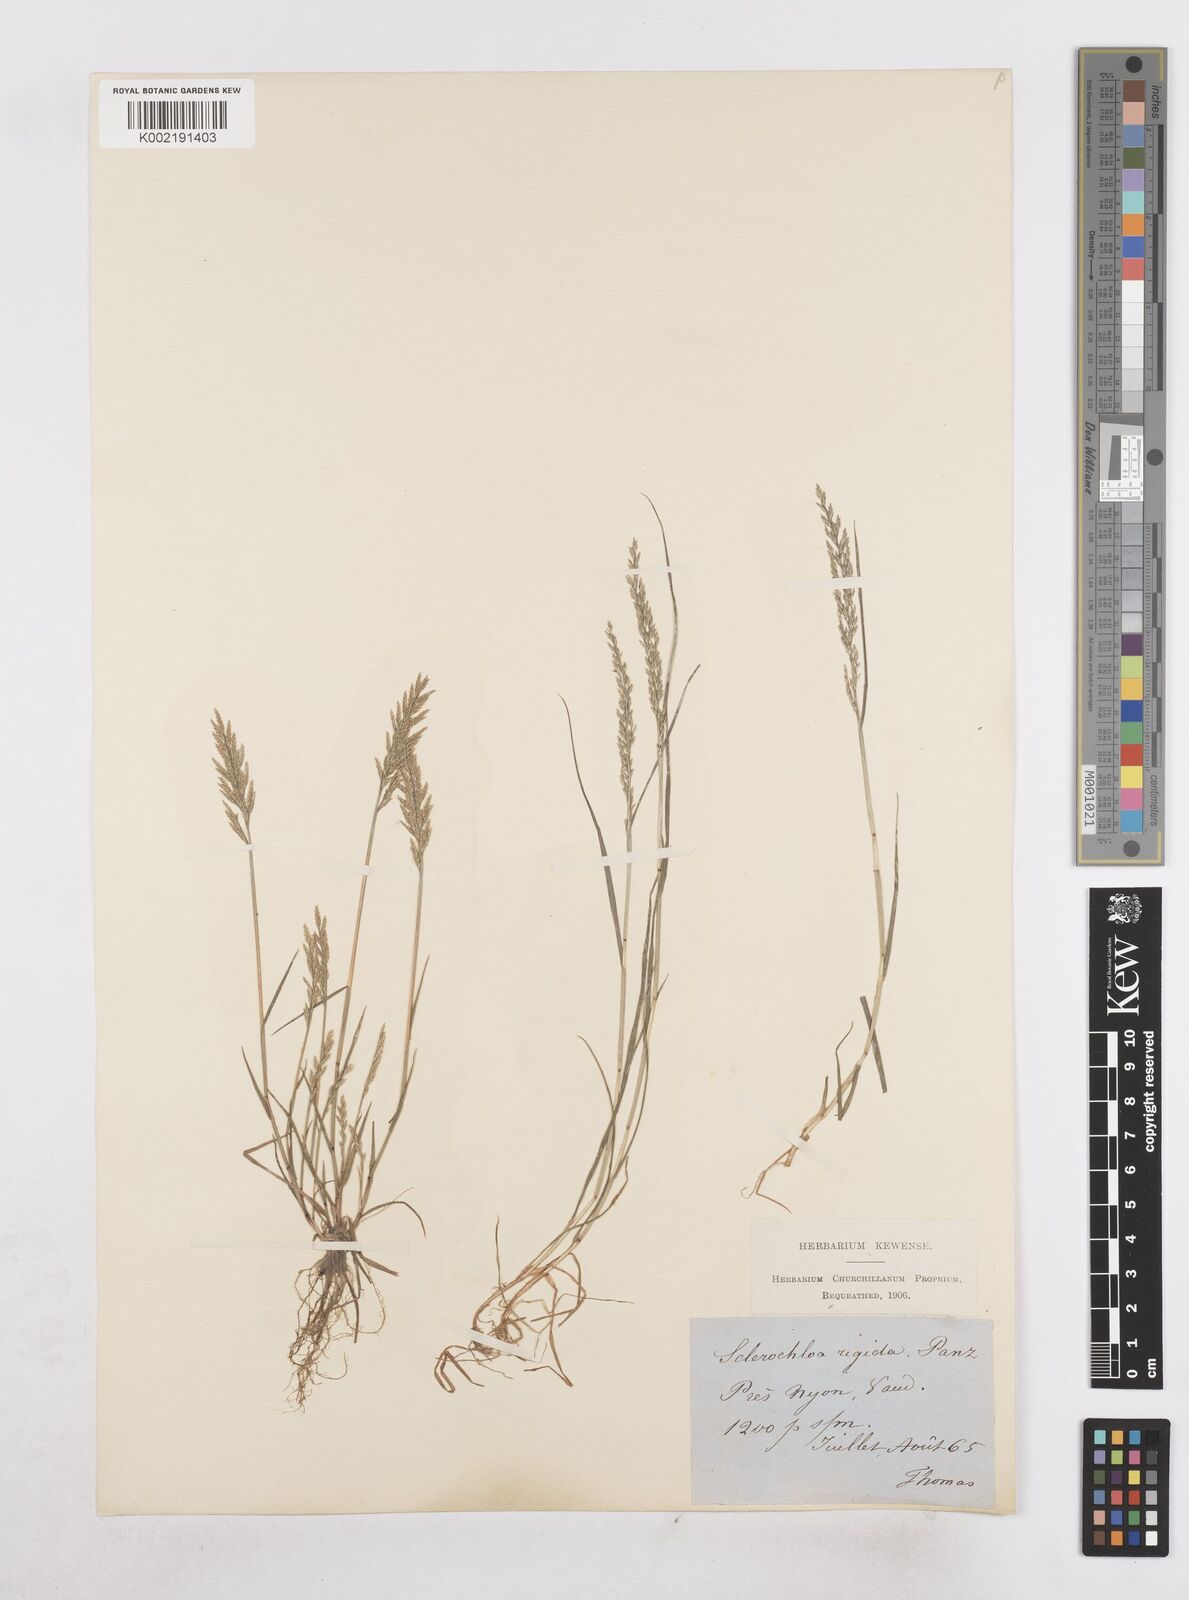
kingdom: Plantae
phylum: Tracheophyta
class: Liliopsida
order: Poales
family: Poaceae
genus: Catapodium
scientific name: Catapodium rigidum
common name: Fern-grass
